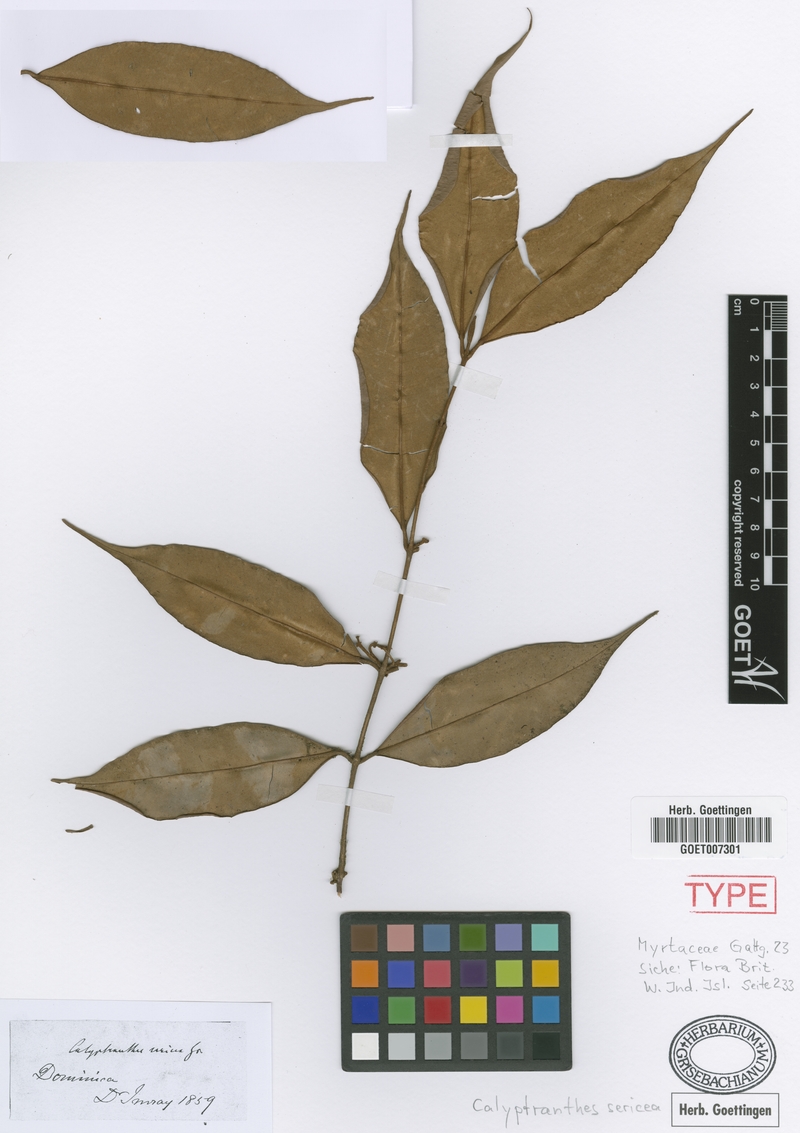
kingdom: Plantae
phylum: Tracheophyta
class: Magnoliopsida
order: Myrtales
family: Myrtaceae
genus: Myrcia
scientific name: Myrcia fasciculata
